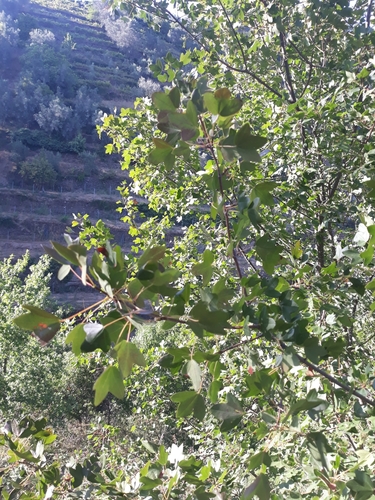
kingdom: Plantae
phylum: Tracheophyta
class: Magnoliopsida
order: Sapindales
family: Sapindaceae
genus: Acer
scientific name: Acer monspessulanum
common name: Montpellier maple
